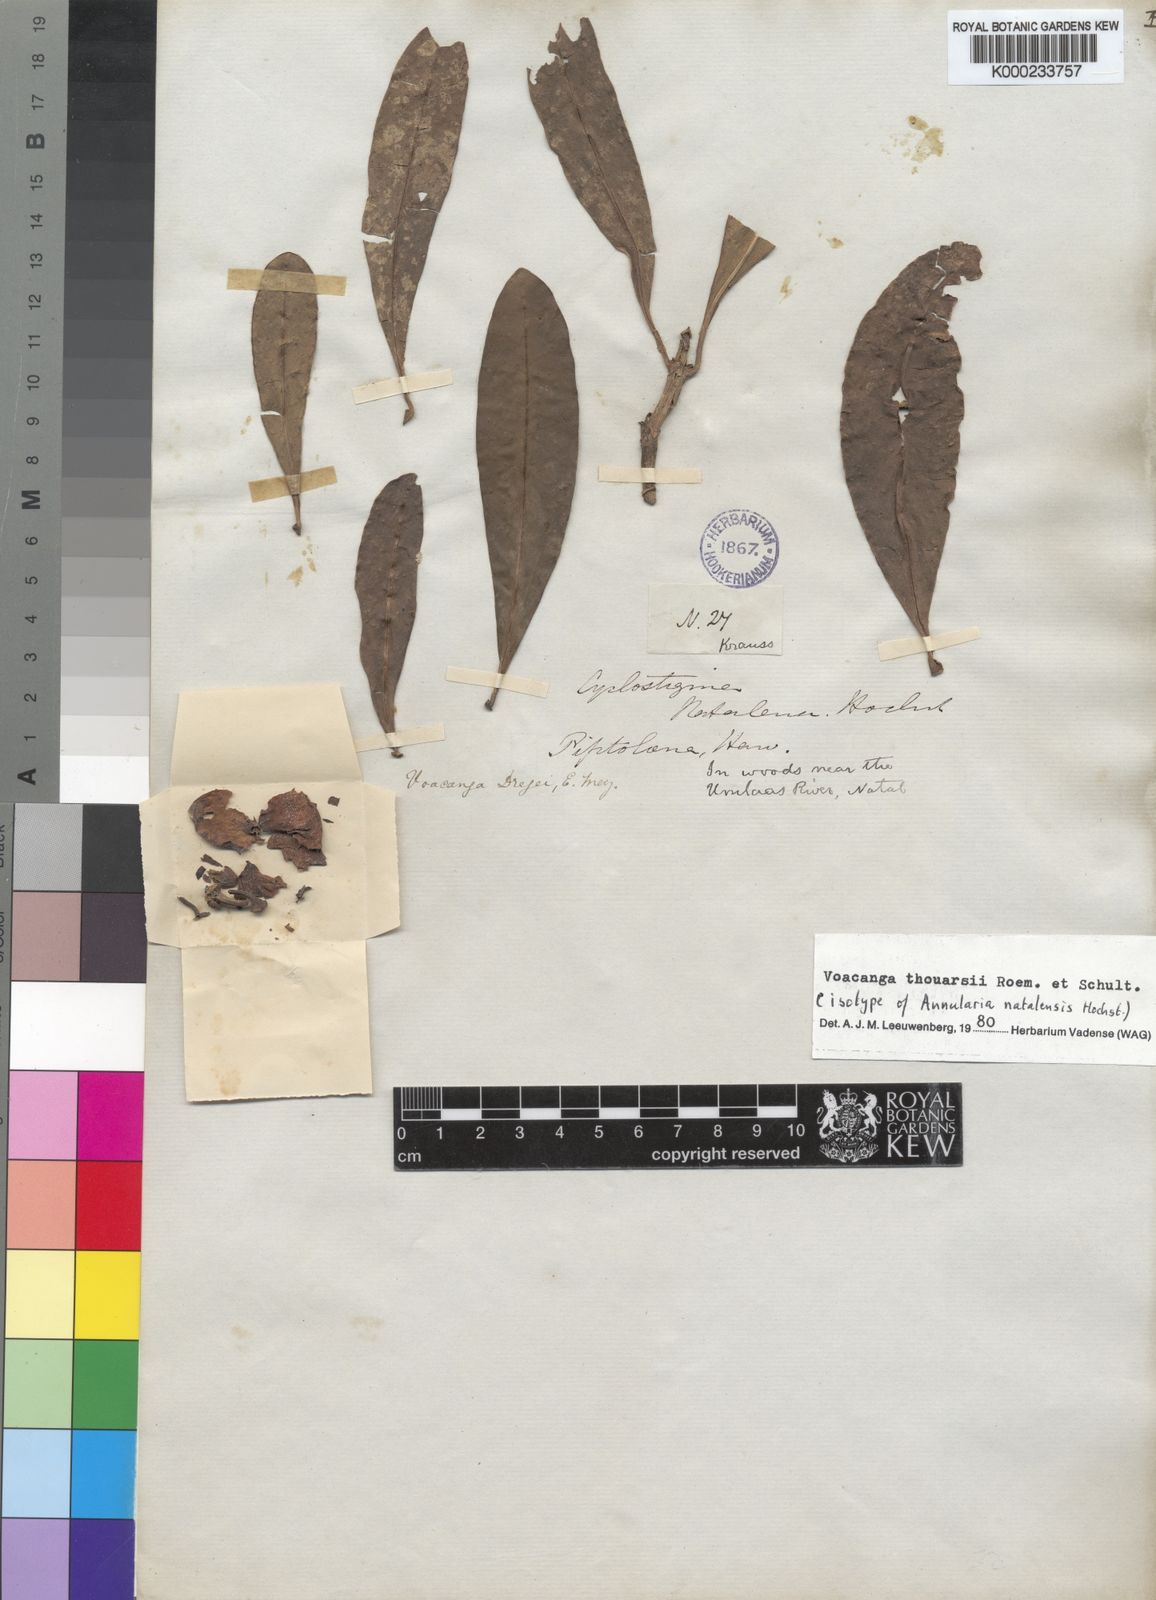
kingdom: Plantae
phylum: Tracheophyta
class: Magnoliopsida
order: Gentianales
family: Apocynaceae
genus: Voacanga
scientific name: Voacanga thouarsii
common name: Wild frangipani
